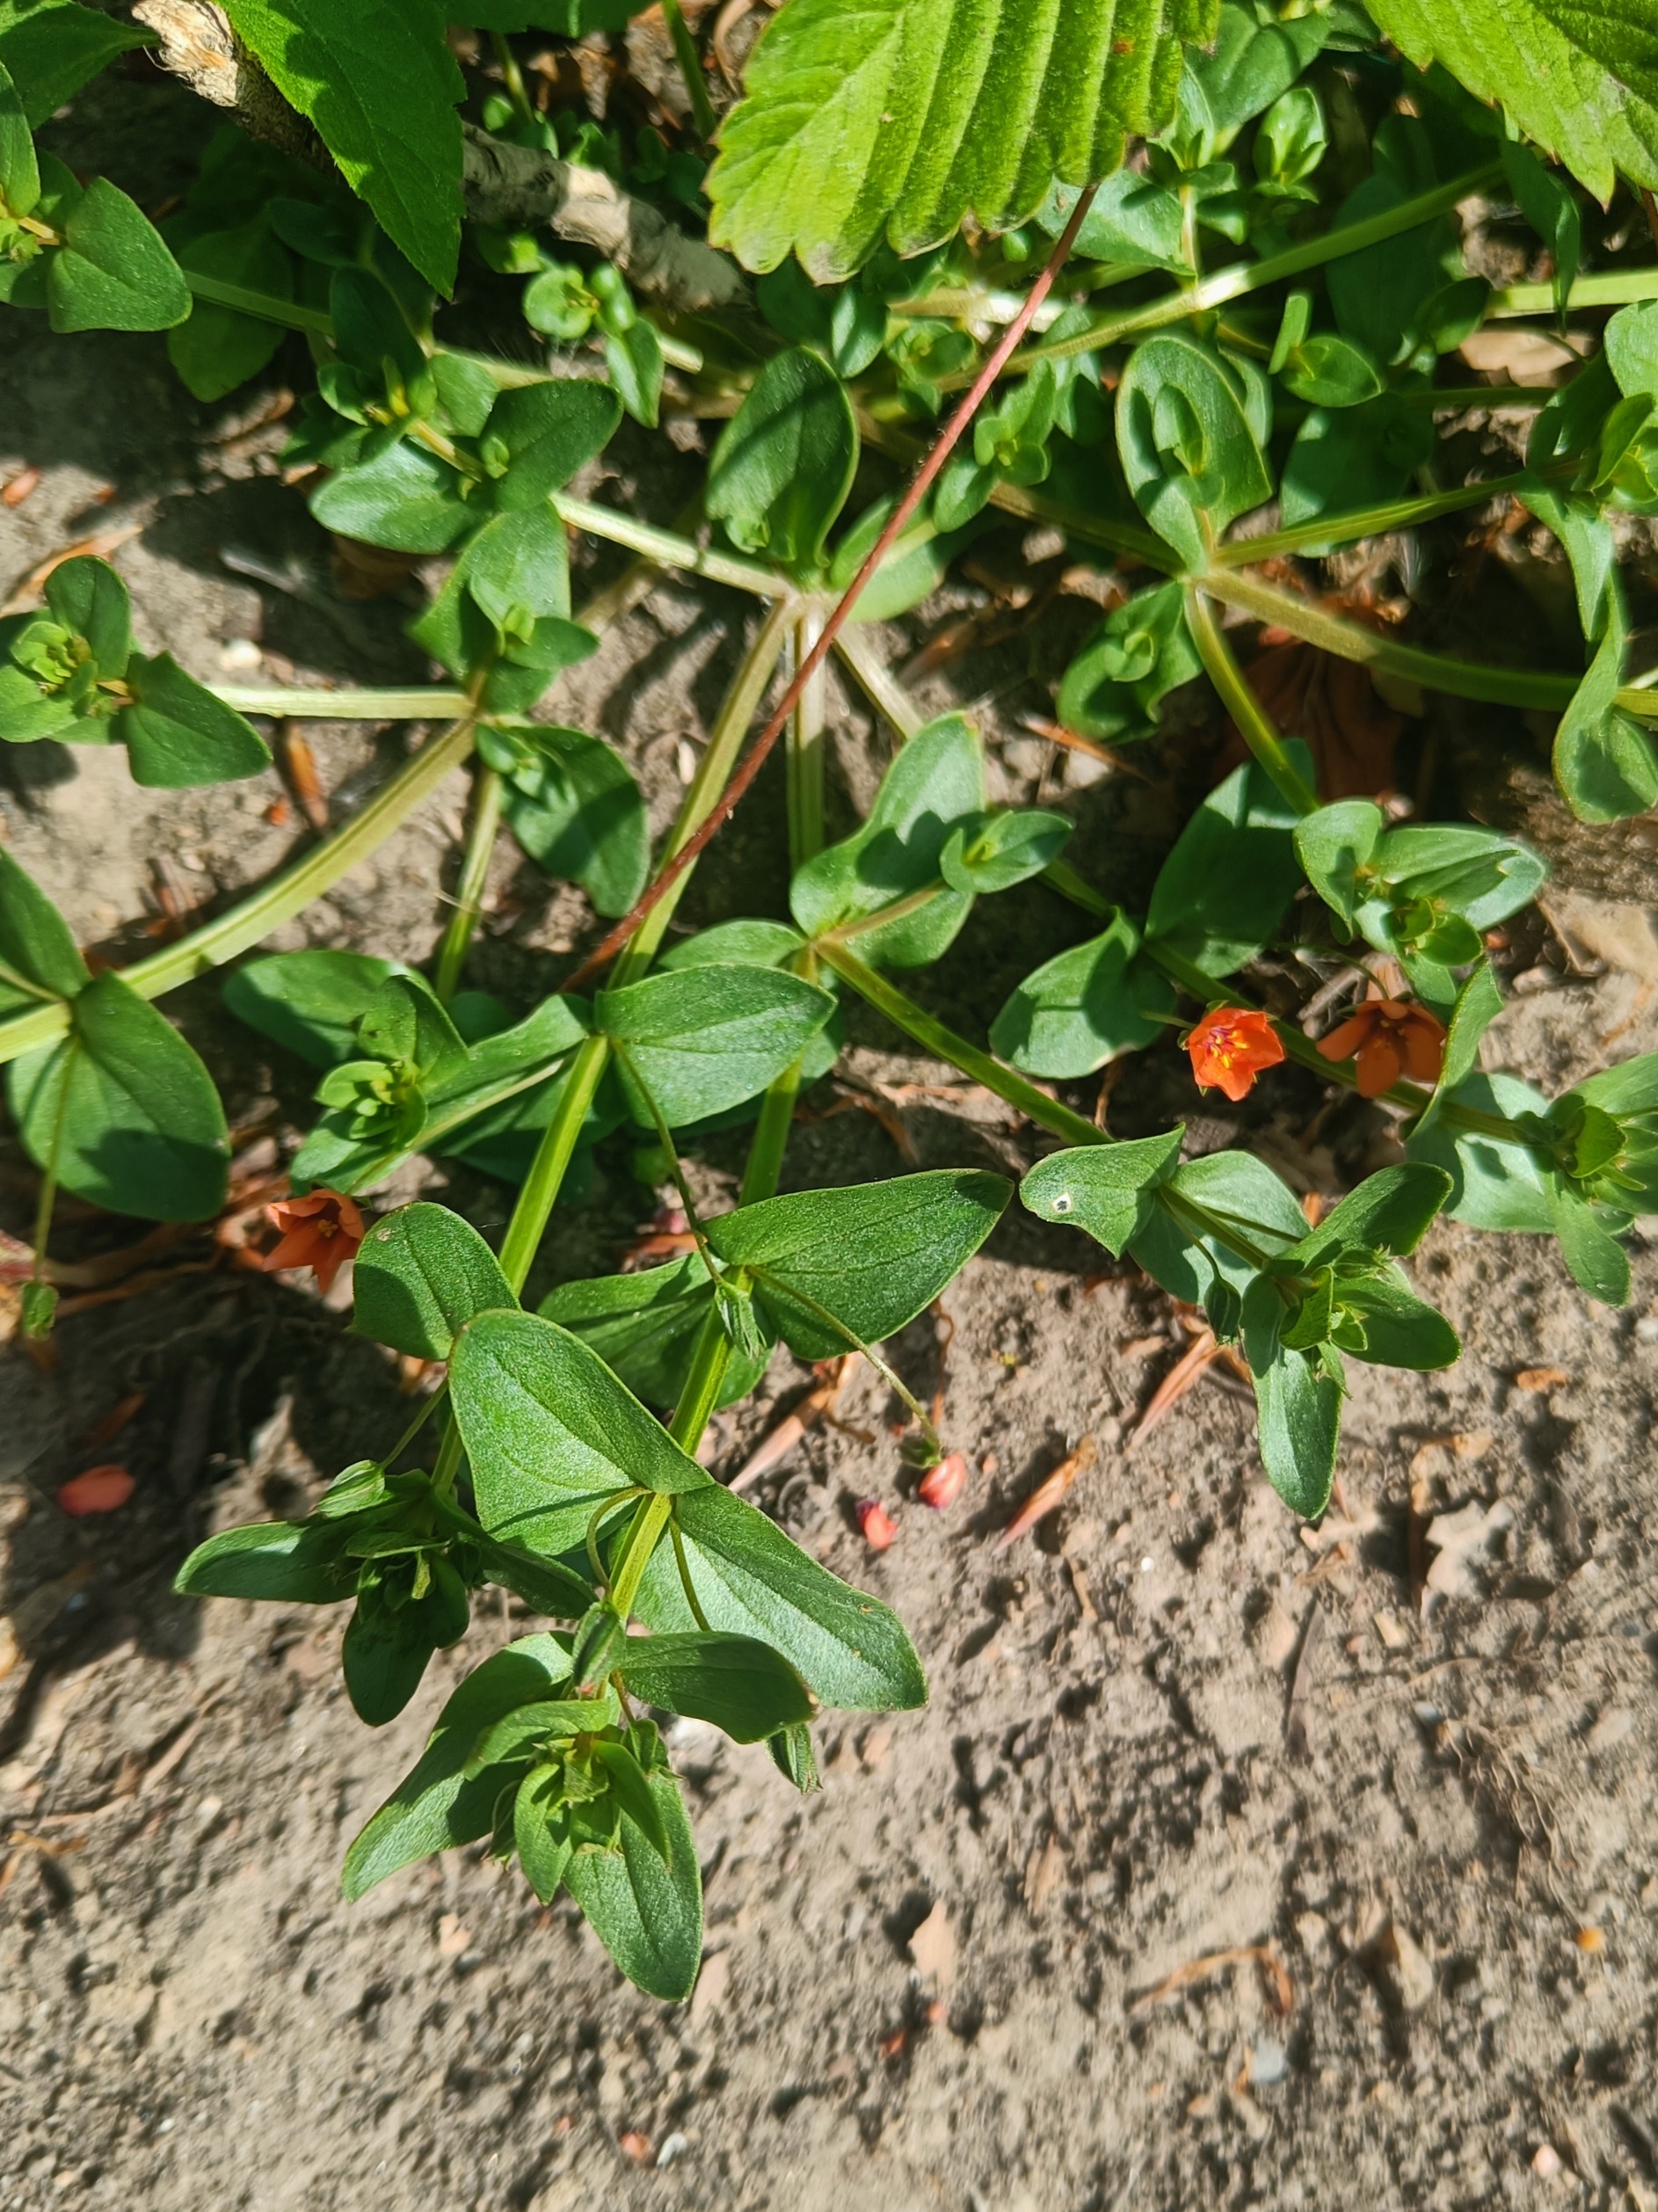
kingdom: Plantae
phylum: Tracheophyta
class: Magnoliopsida
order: Ericales
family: Primulaceae
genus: Lysimachia
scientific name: Lysimachia arvensis
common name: Rød arve
